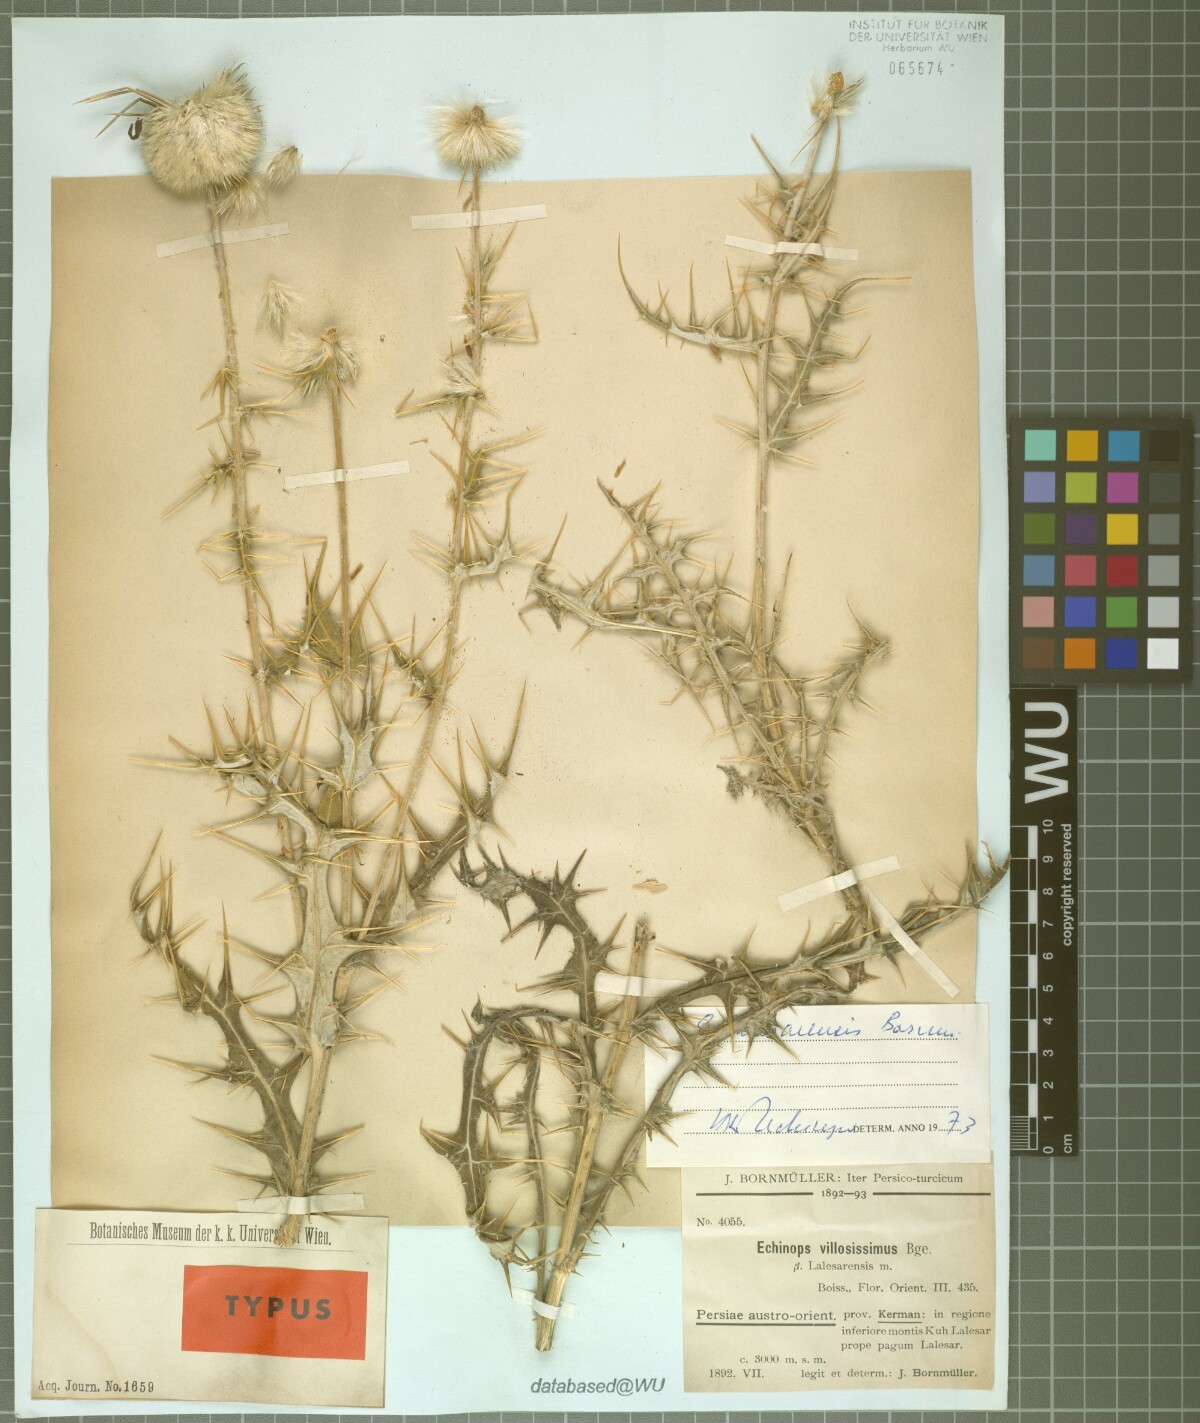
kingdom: Plantae
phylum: Tracheophyta
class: Magnoliopsida
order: Asterales
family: Asteraceae
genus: Echinops
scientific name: Echinops lalesarensis
